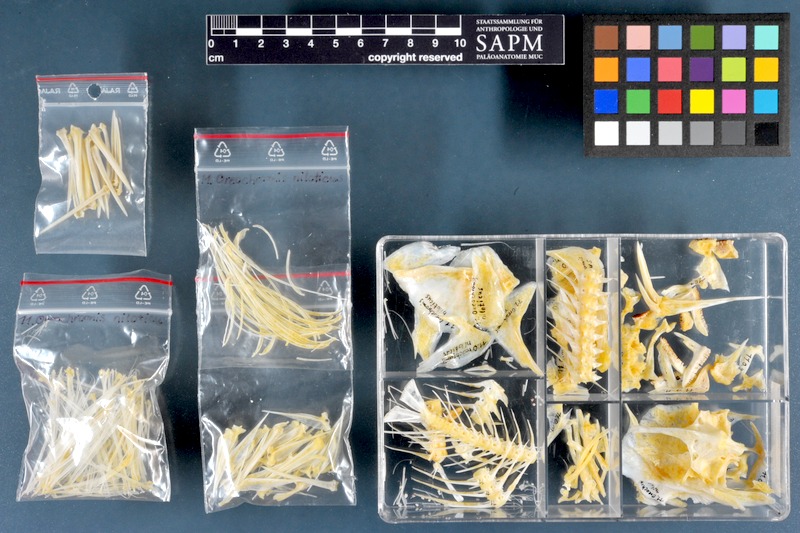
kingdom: Animalia
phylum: Chordata
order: Perciformes
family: Cichlidae
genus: Oreochromis
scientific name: Oreochromis niloticus
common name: Nile tilapia
